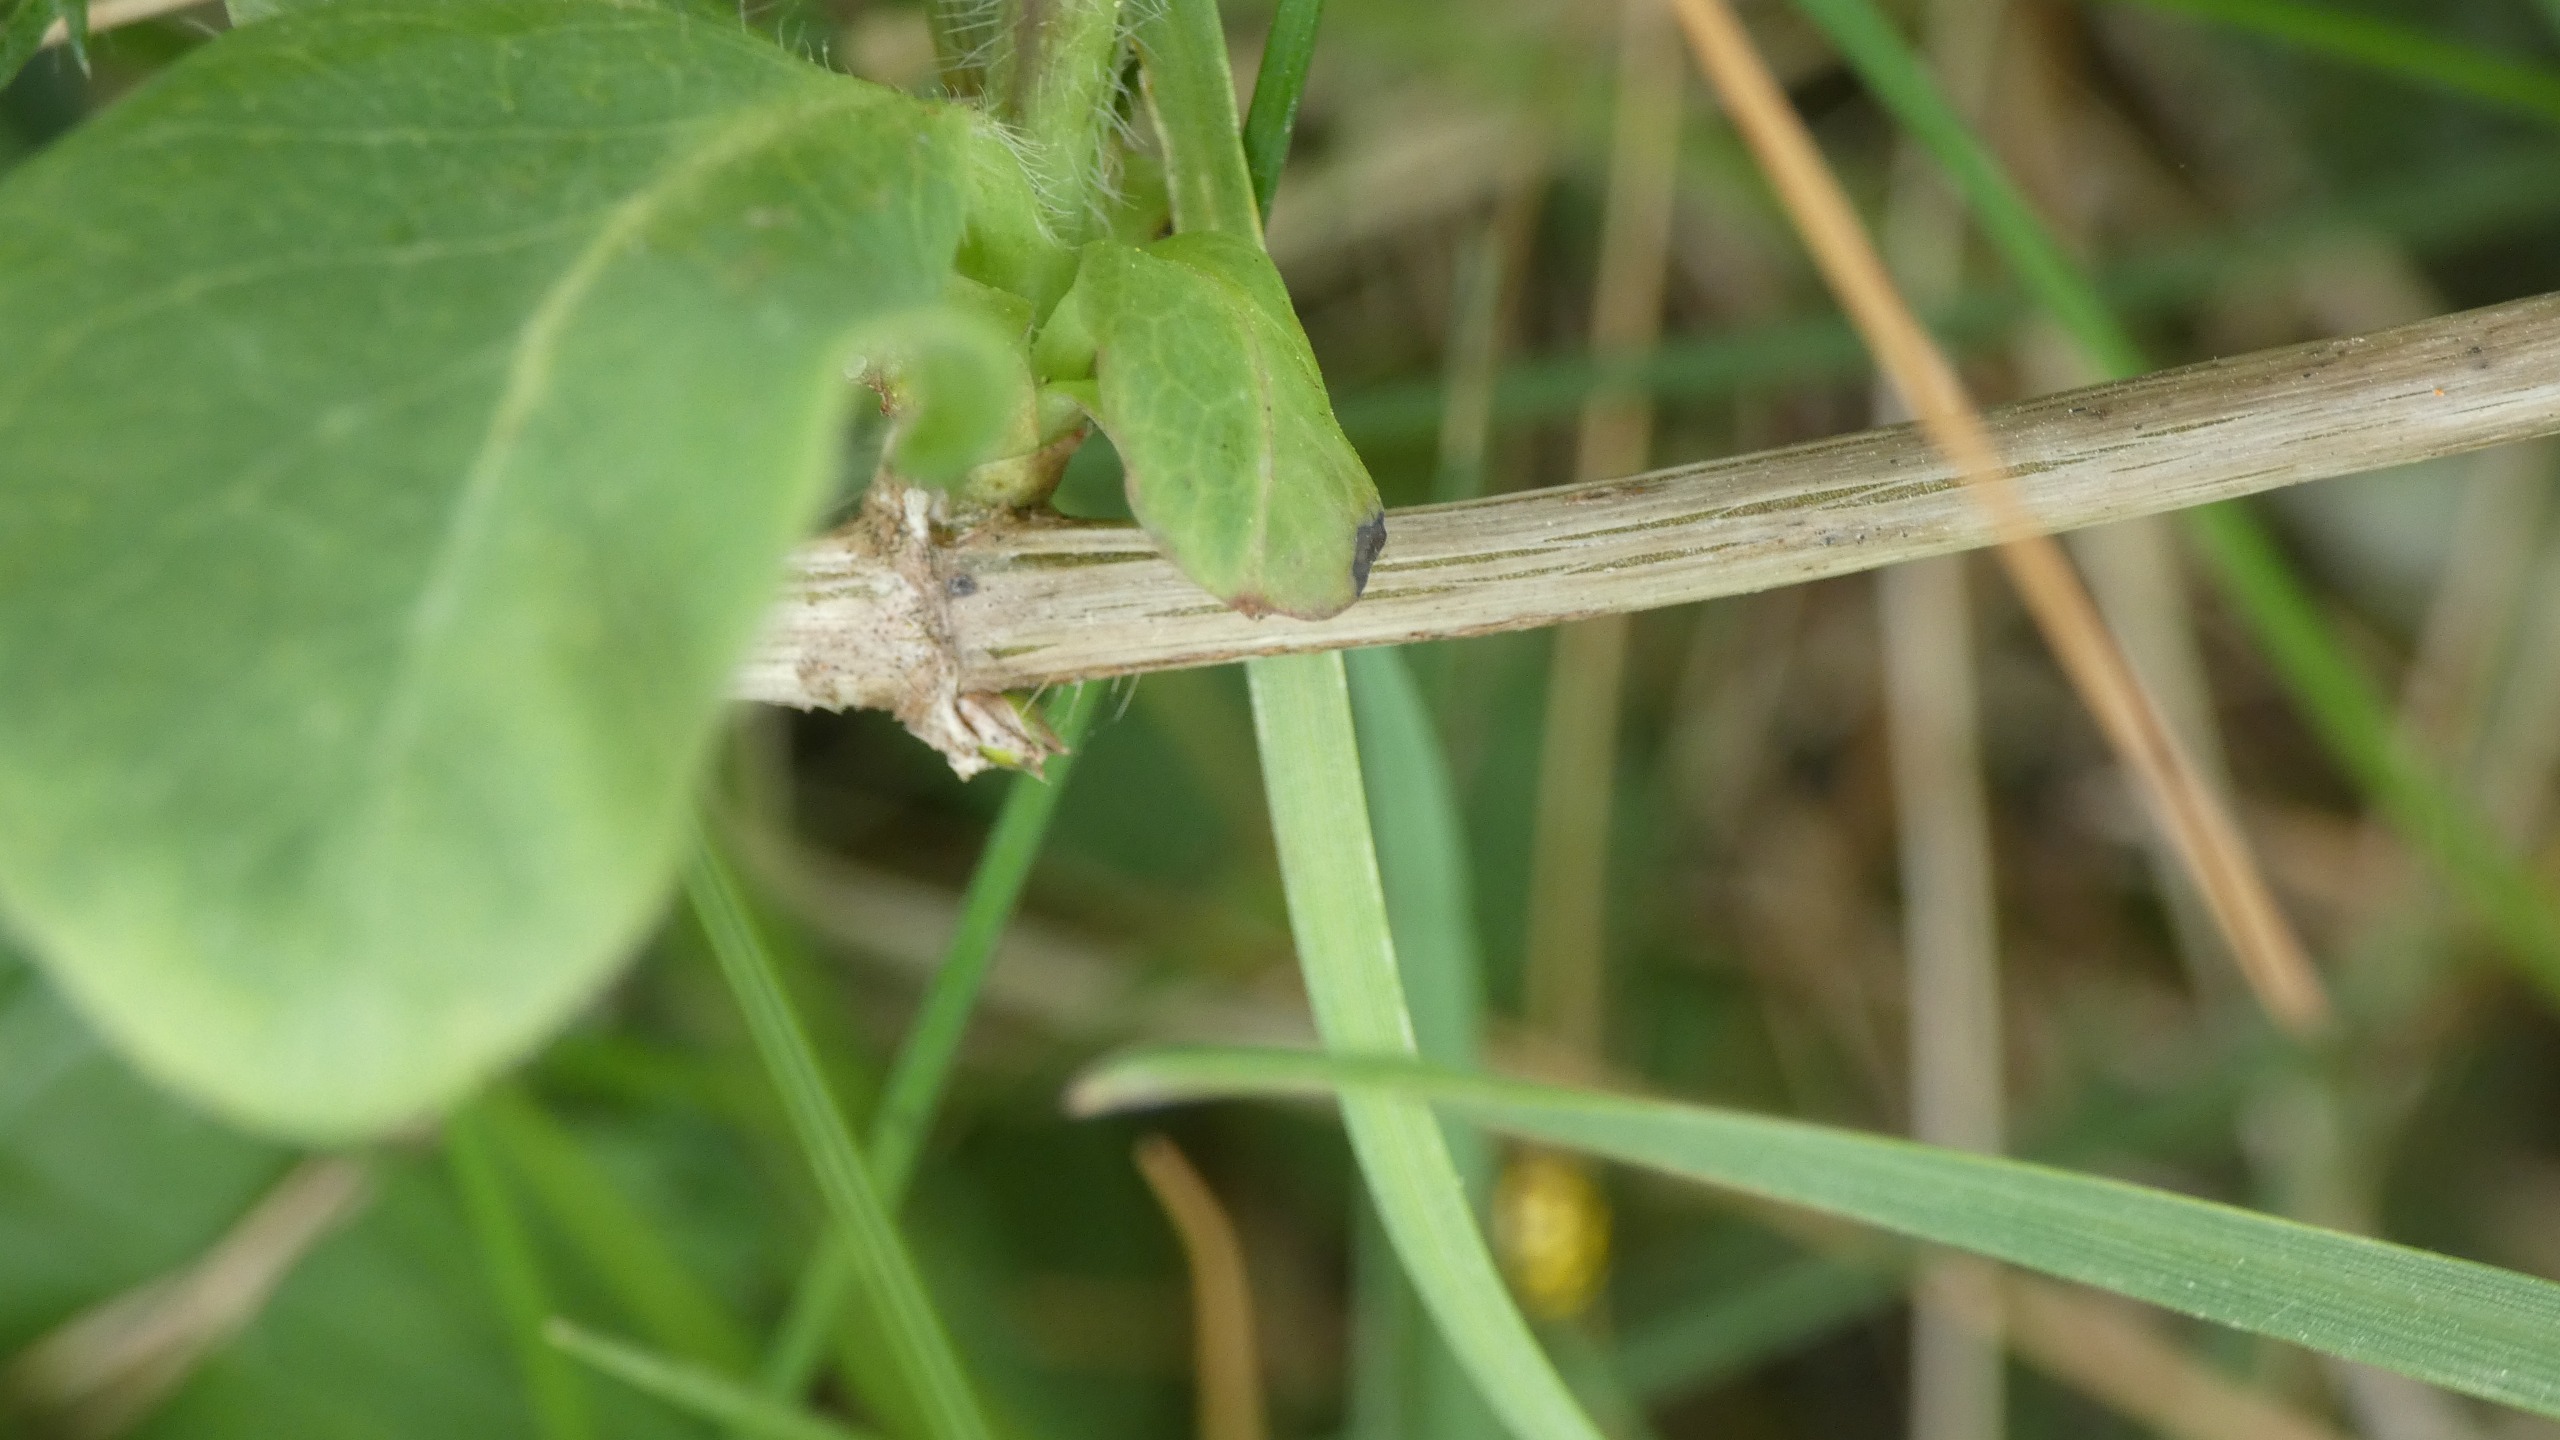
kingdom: Plantae
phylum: Tracheophyta
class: Magnoliopsida
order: Dipsacales
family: Caprifoliaceae
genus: Lonicera
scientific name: Lonicera periclymenum
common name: Almindelig gedeblad
